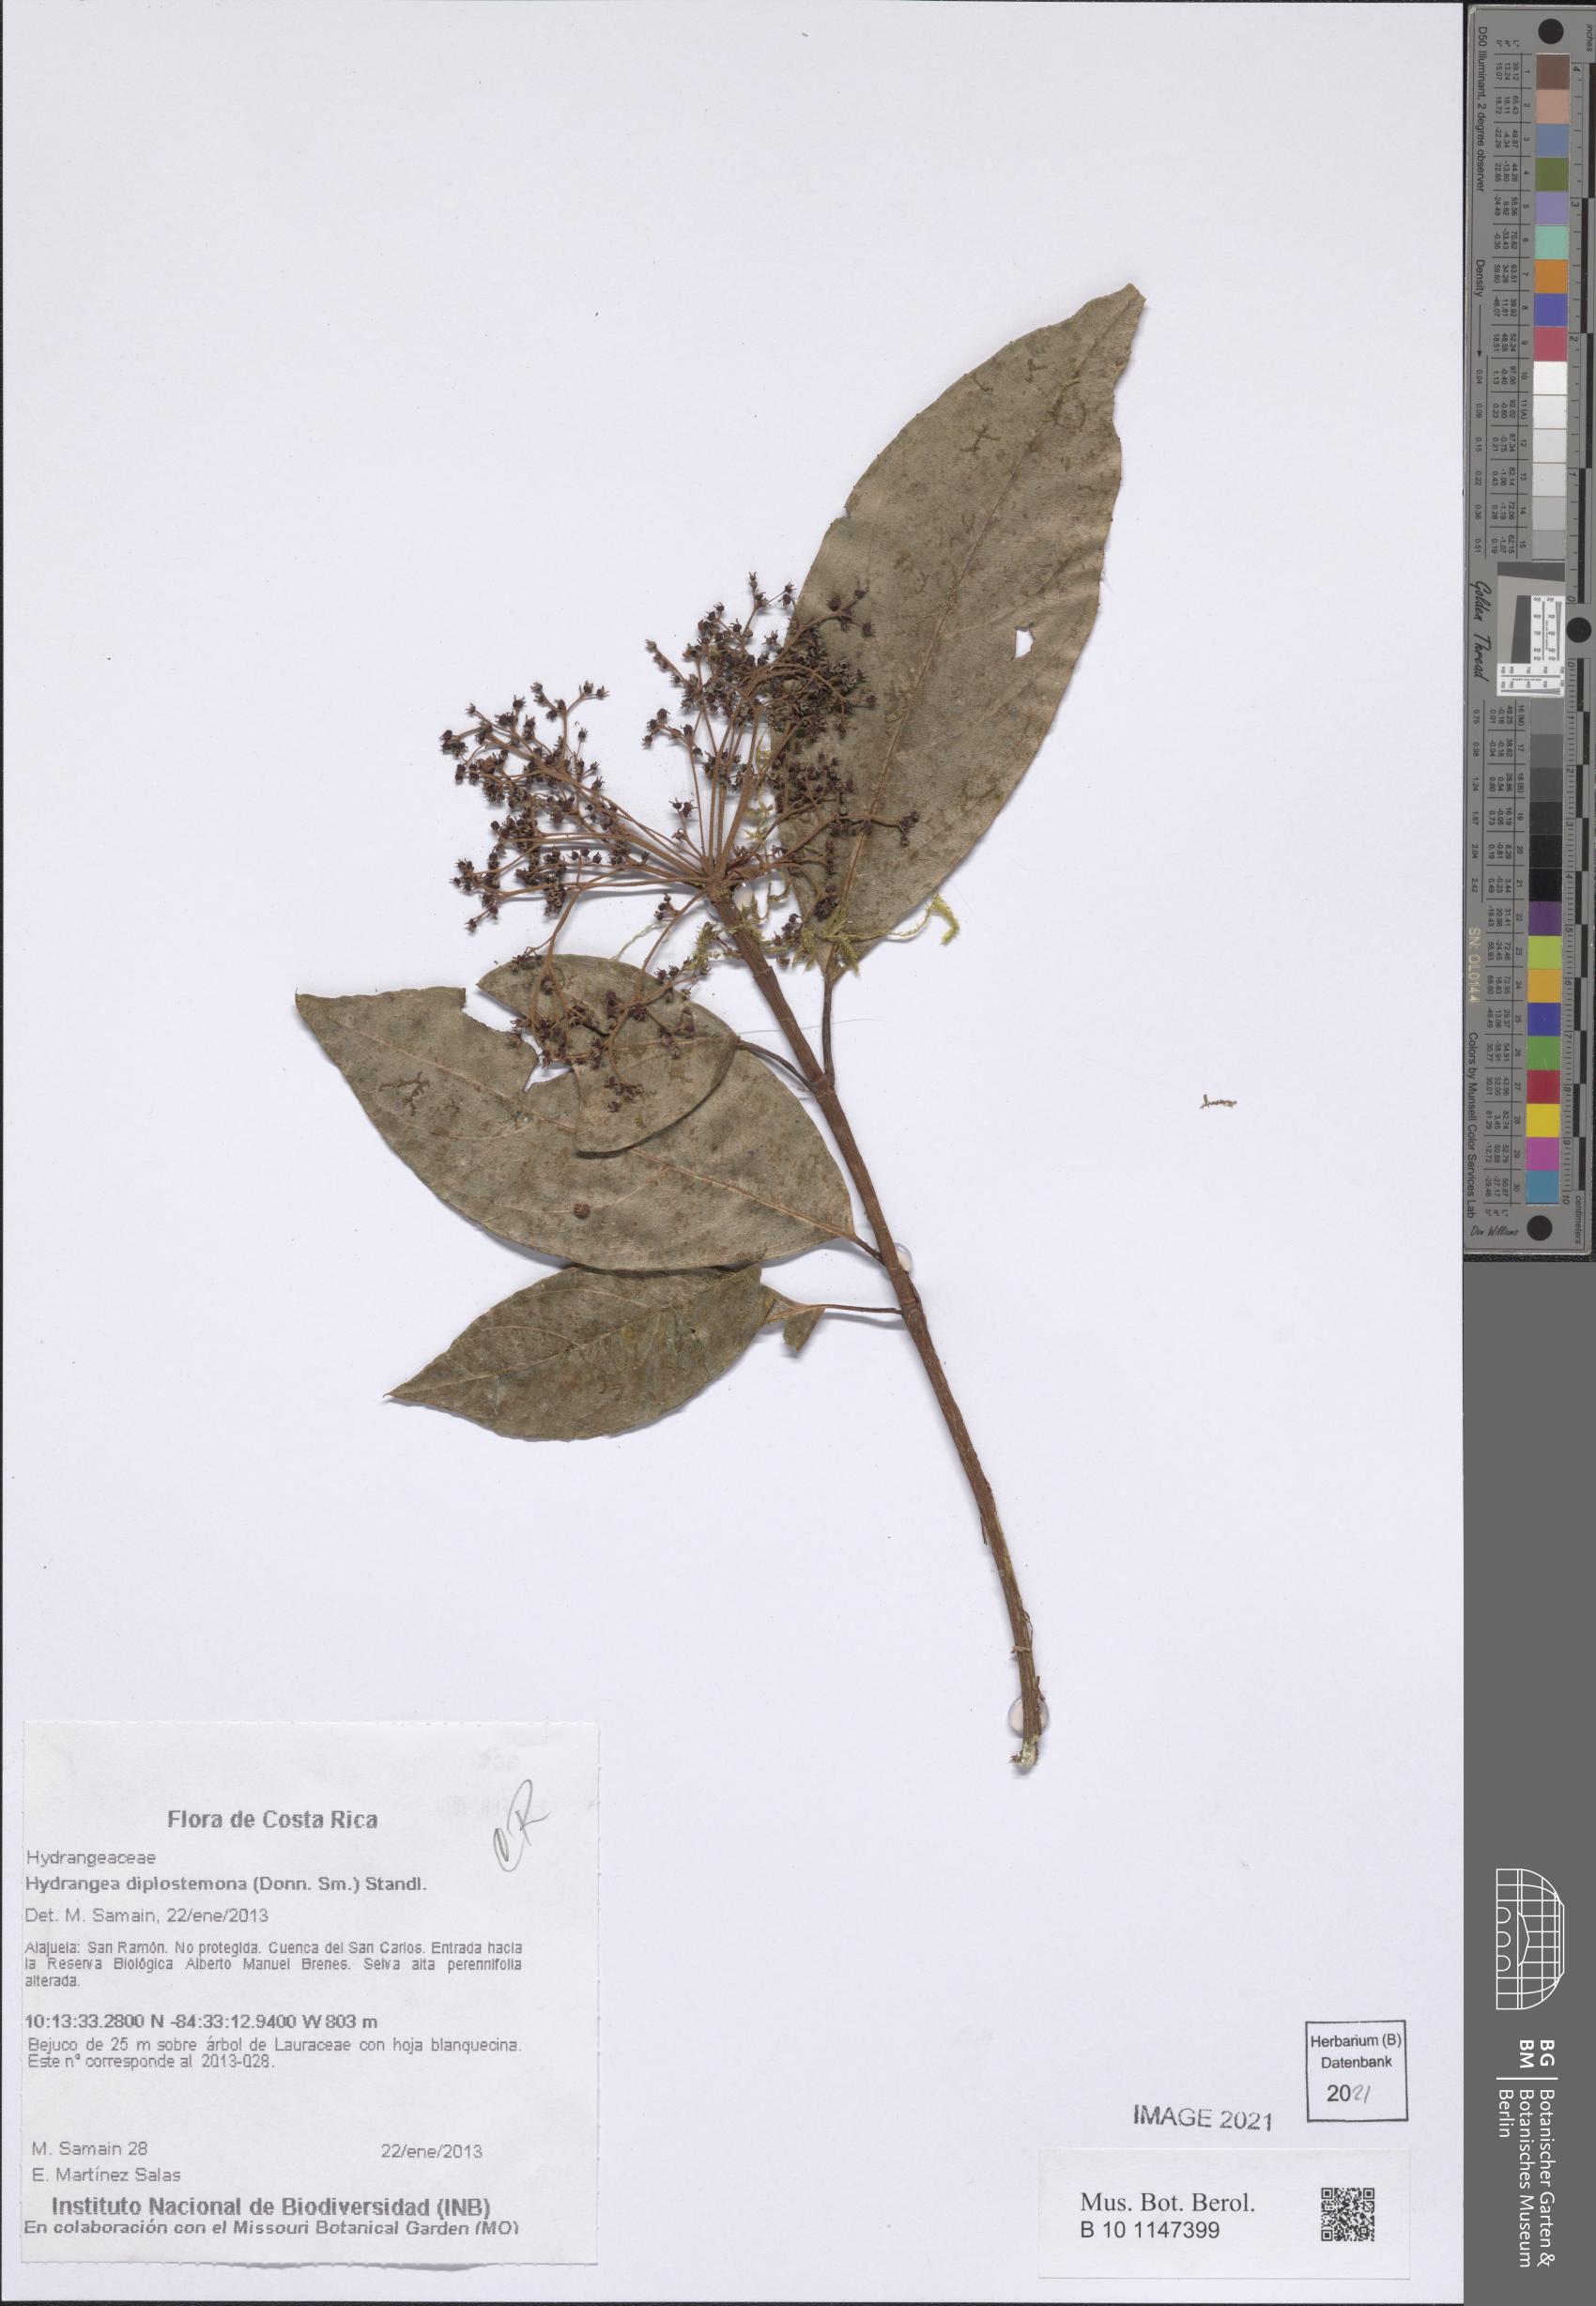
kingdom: Plantae
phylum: Tracheophyta
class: Magnoliopsida
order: Cornales
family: Hydrangeaceae
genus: Hydrangea
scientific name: Hydrangea diplostemona
